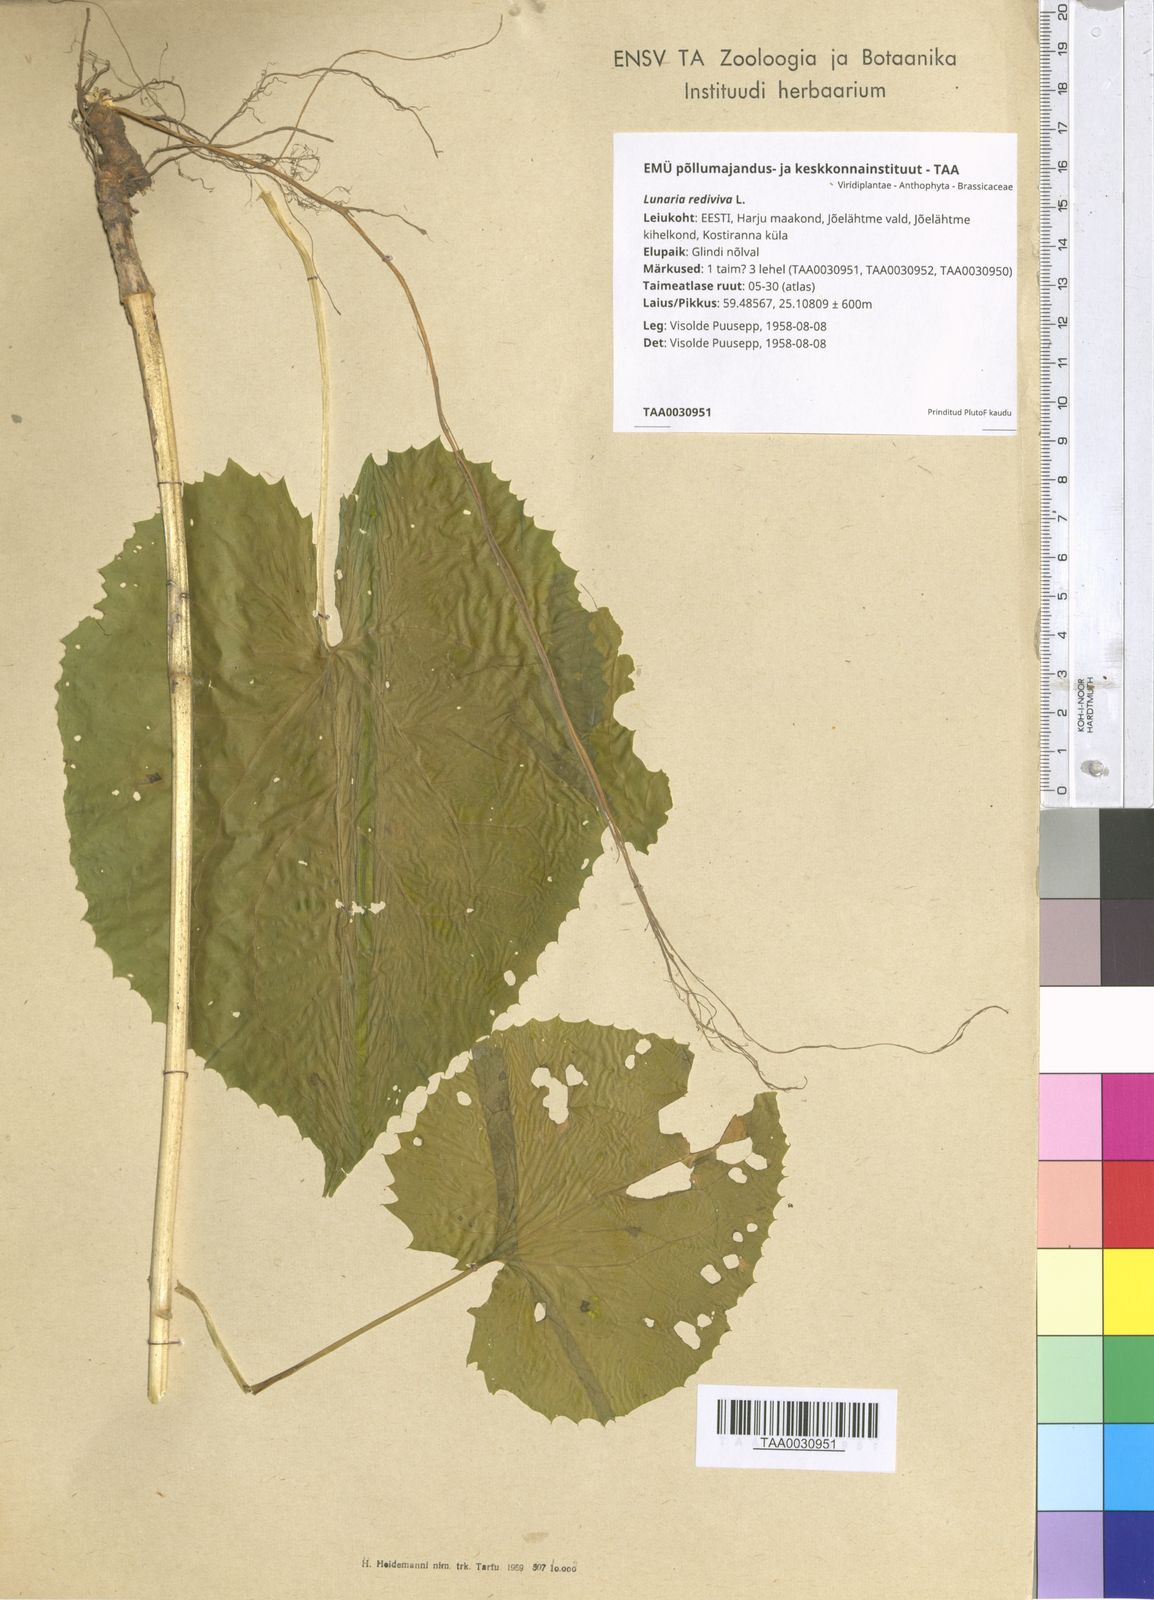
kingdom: Plantae
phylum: Tracheophyta
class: Magnoliopsida
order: Brassicales
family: Brassicaceae
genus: Lunaria
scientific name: Lunaria rediviva
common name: Perennial honesty
